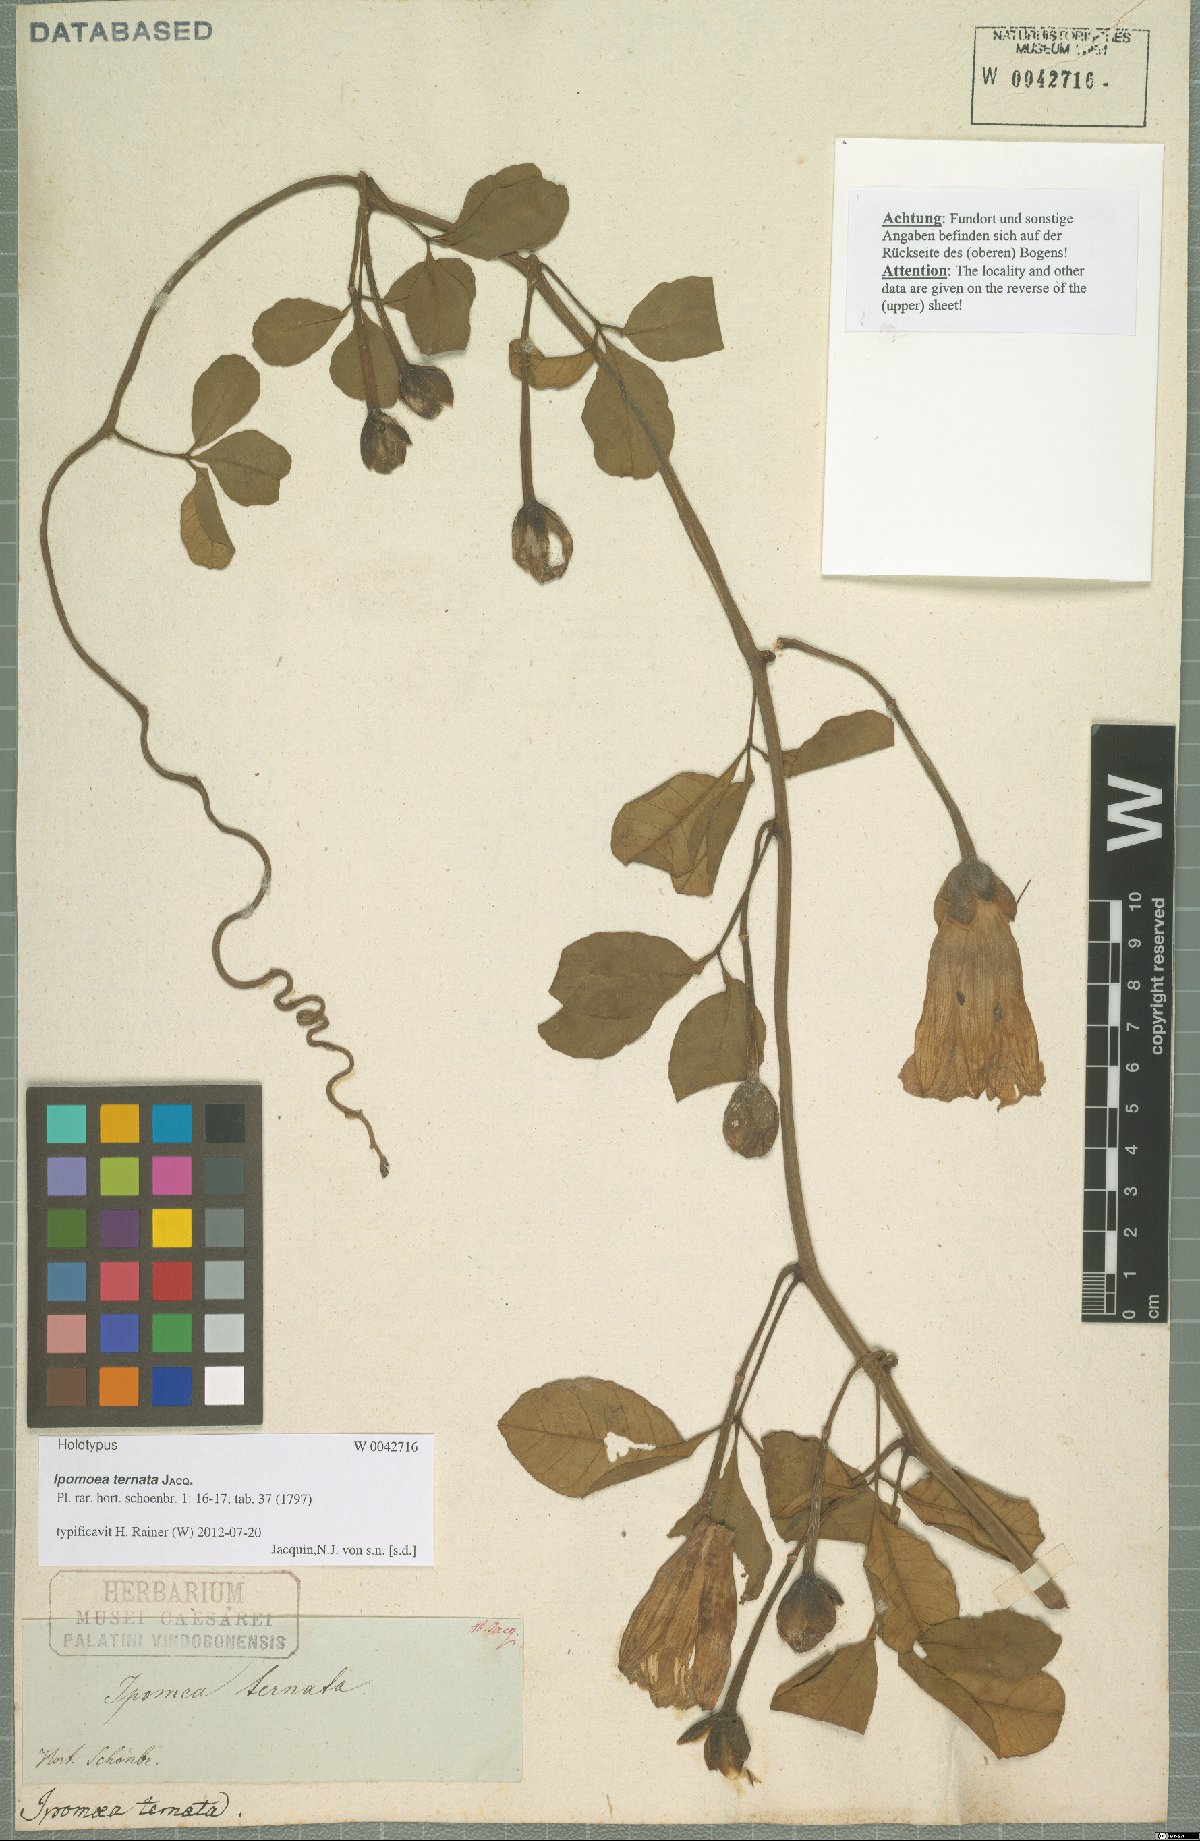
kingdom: Plantae
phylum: Tracheophyta
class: Magnoliopsida
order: Solanales
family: Convolvulaceae
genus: Ipomoea
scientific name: Ipomoea ternata
